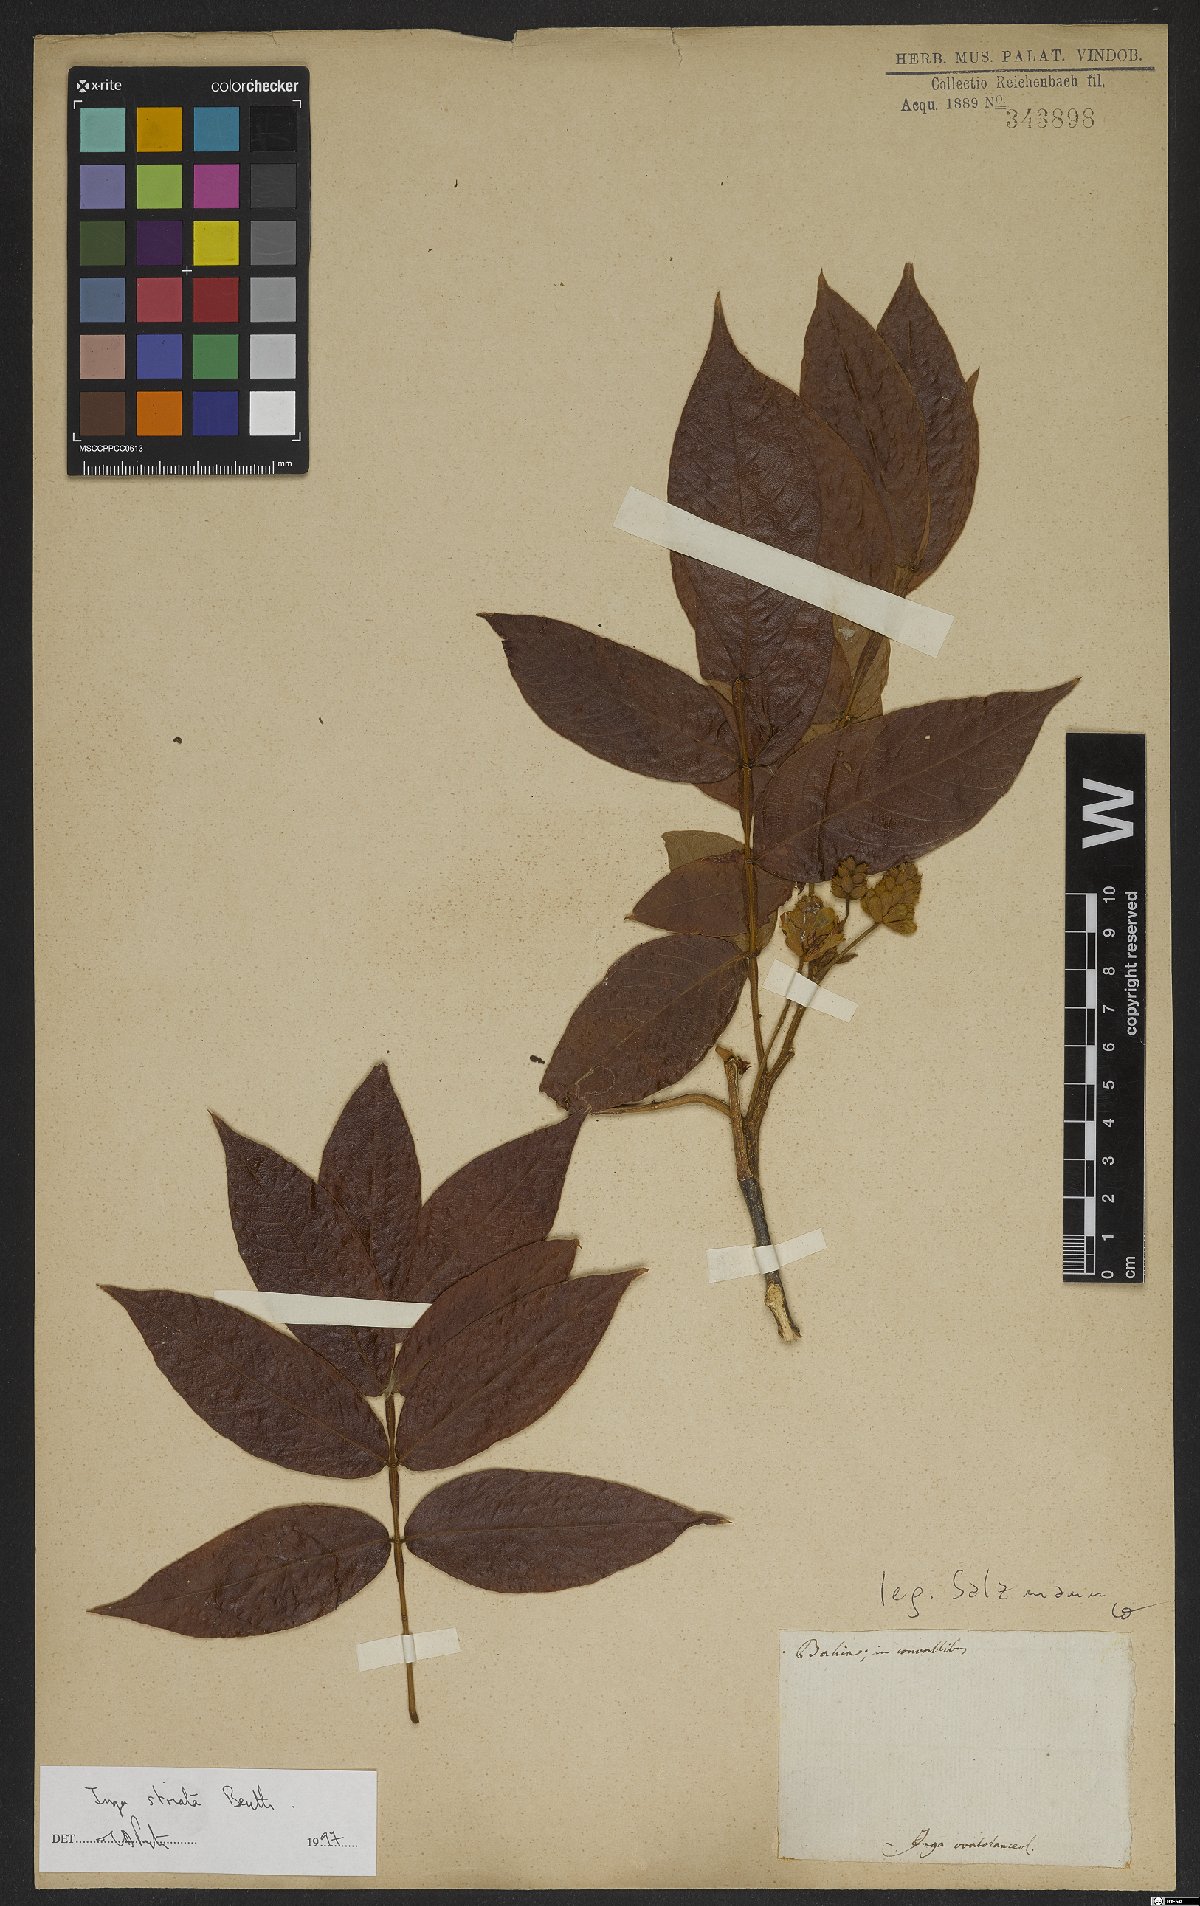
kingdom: Plantae
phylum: Tracheophyta
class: Magnoliopsida
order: Fabales
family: Fabaceae
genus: Inga
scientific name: Inga striata
